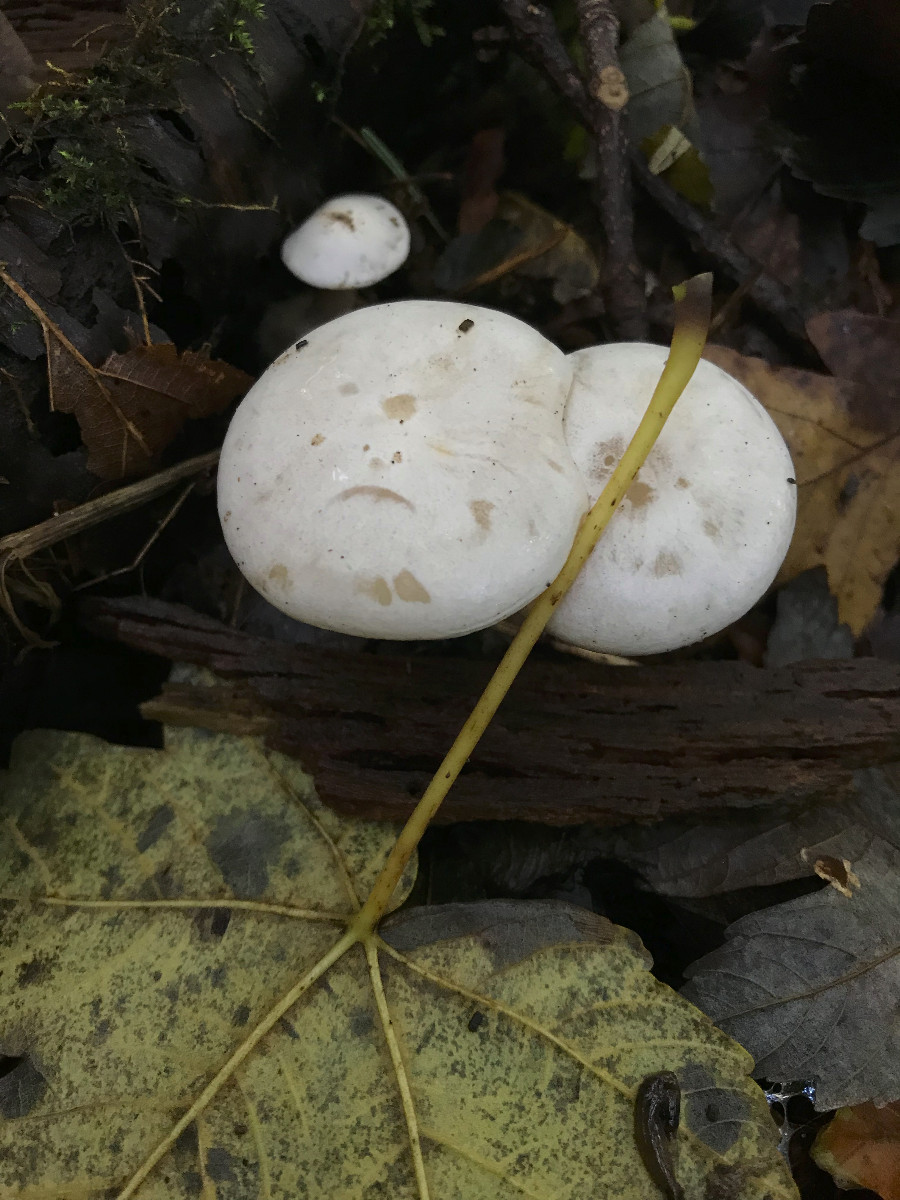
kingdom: Fungi
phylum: Basidiomycota
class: Agaricomycetes
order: Agaricales
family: Tricholomataceae
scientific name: Tricholomataceae
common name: ridderhatfamilien
